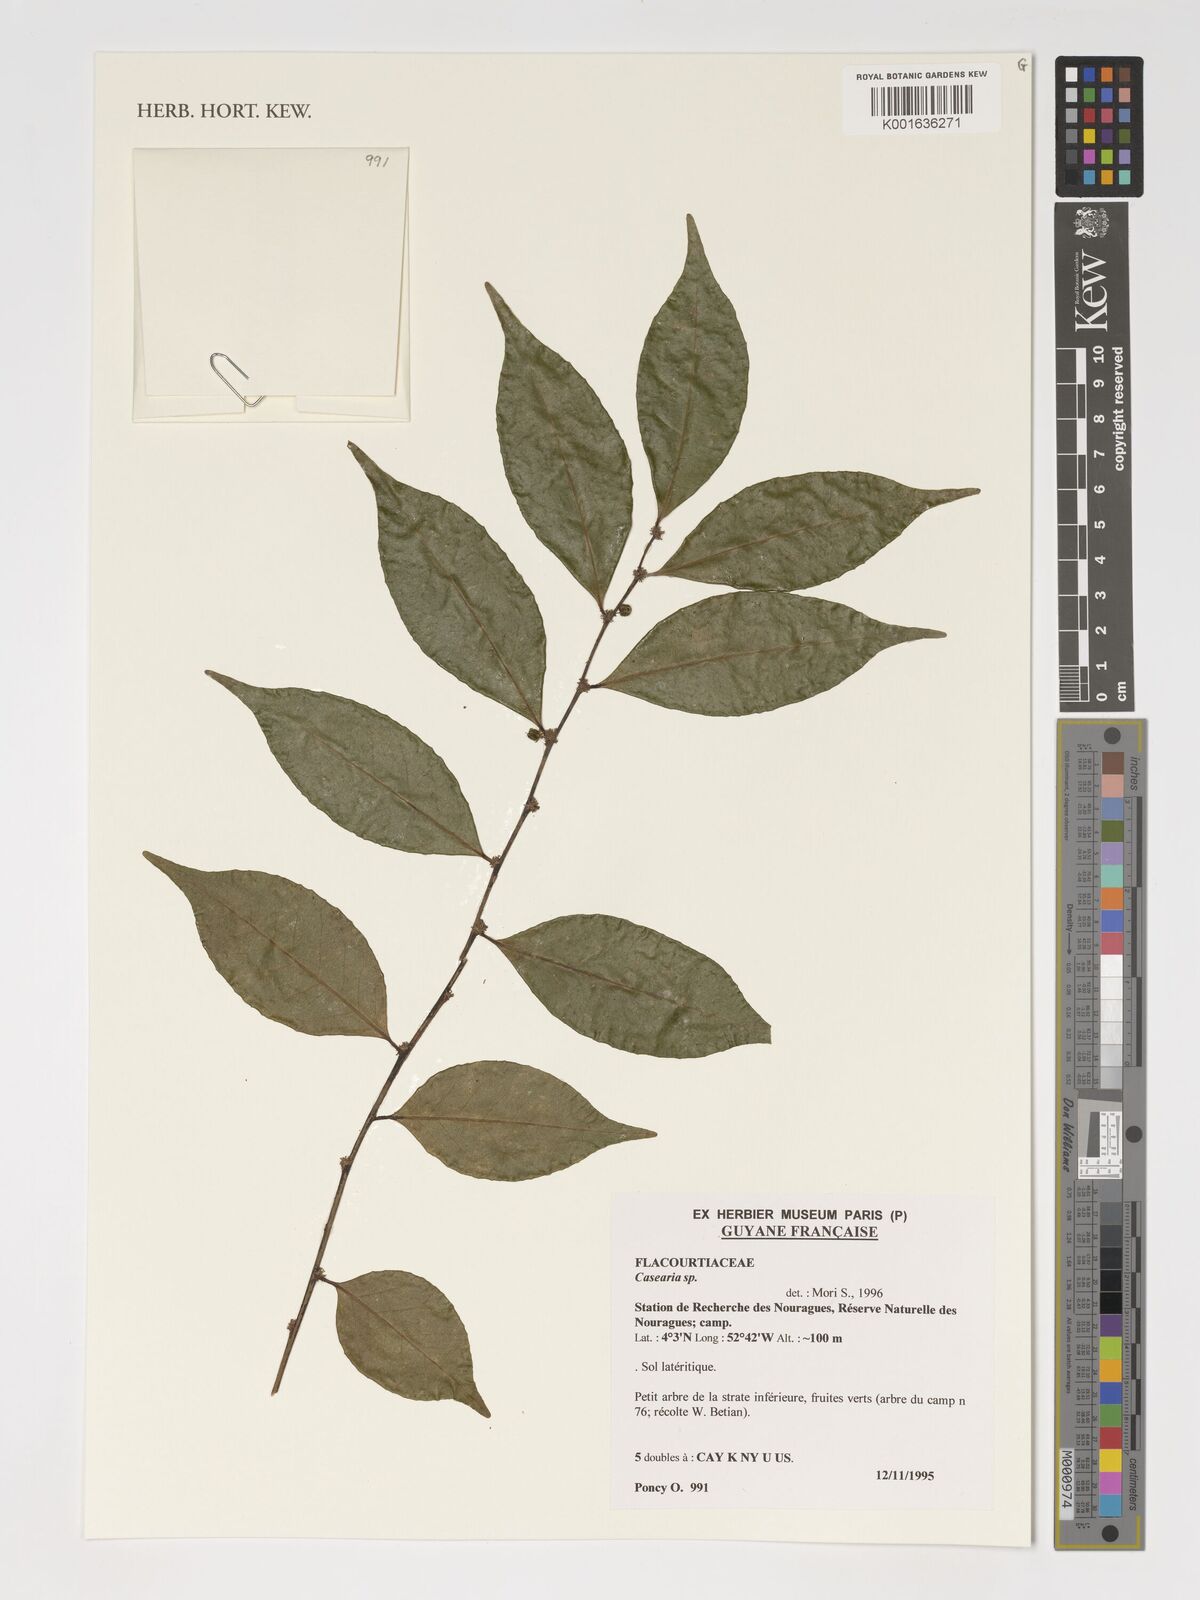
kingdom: Plantae
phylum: Tracheophyta
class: Magnoliopsida
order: Malpighiales
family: Salicaceae
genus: Casearia
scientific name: Casearia
